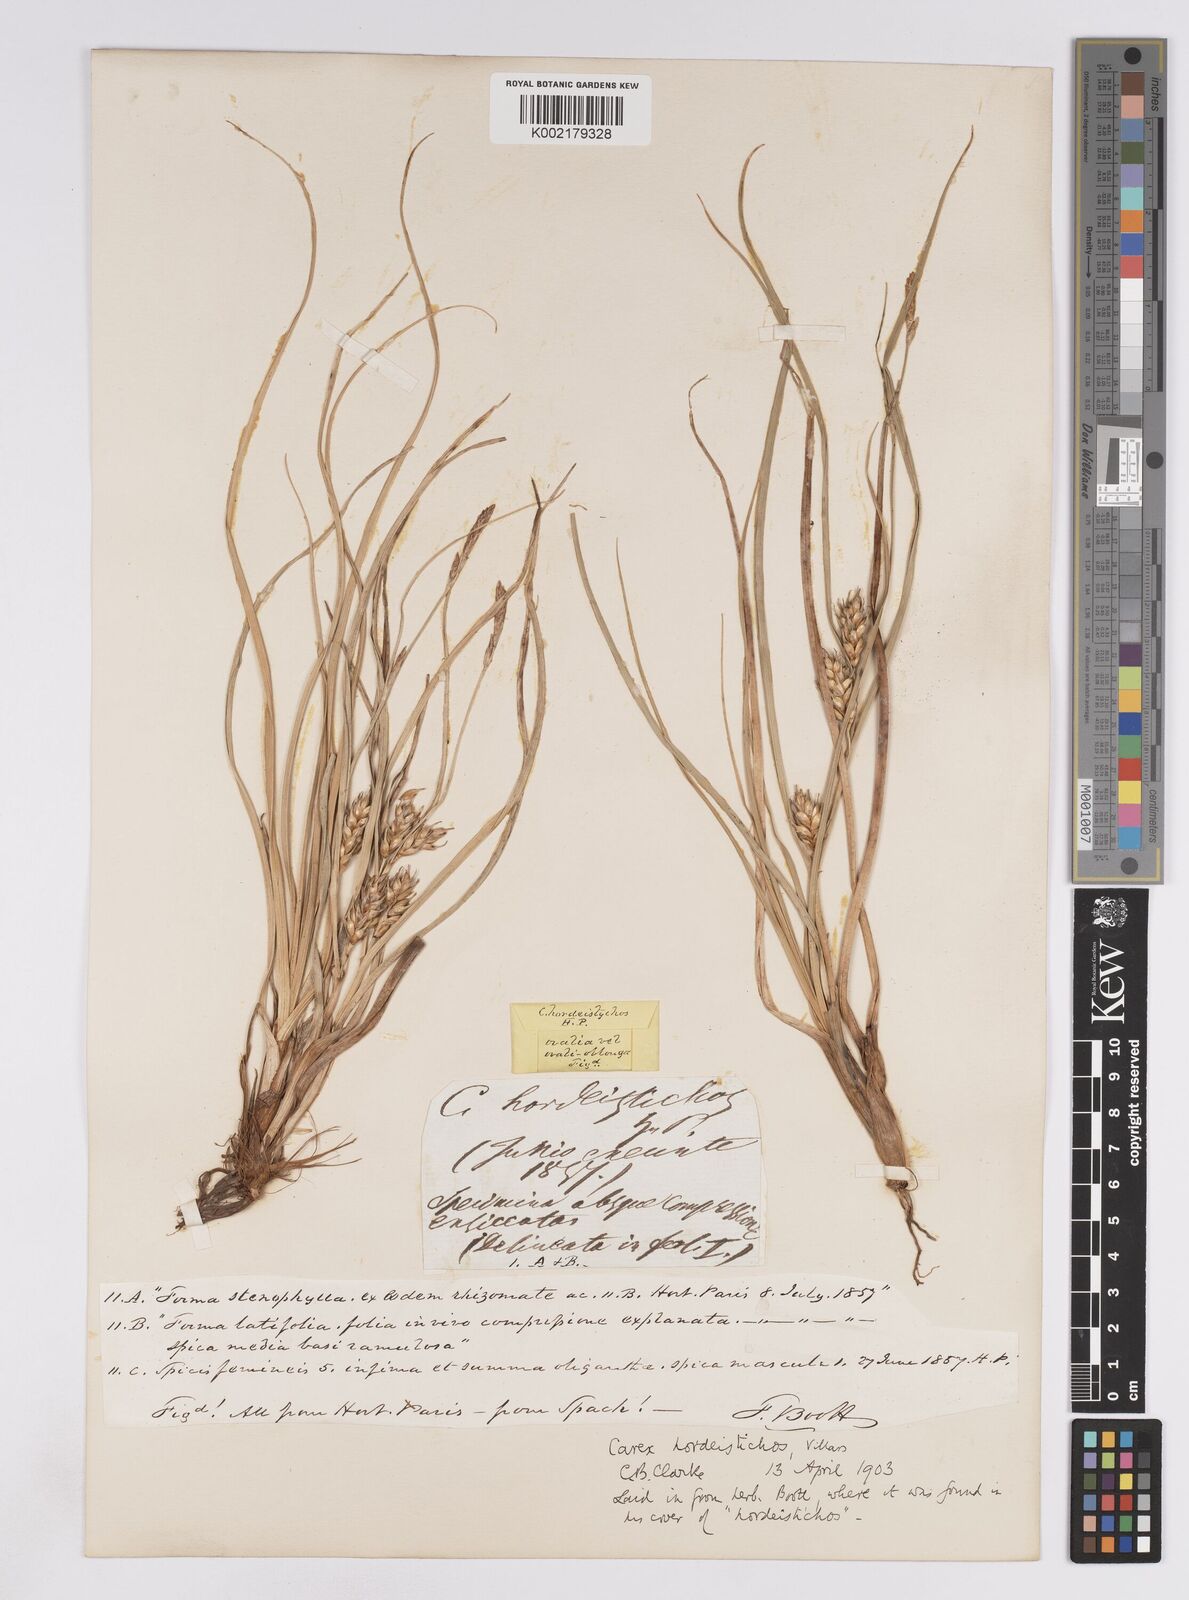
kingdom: Plantae
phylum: Tracheophyta
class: Liliopsida
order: Poales
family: Cyperaceae
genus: Carex
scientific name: Carex hordeistichos
